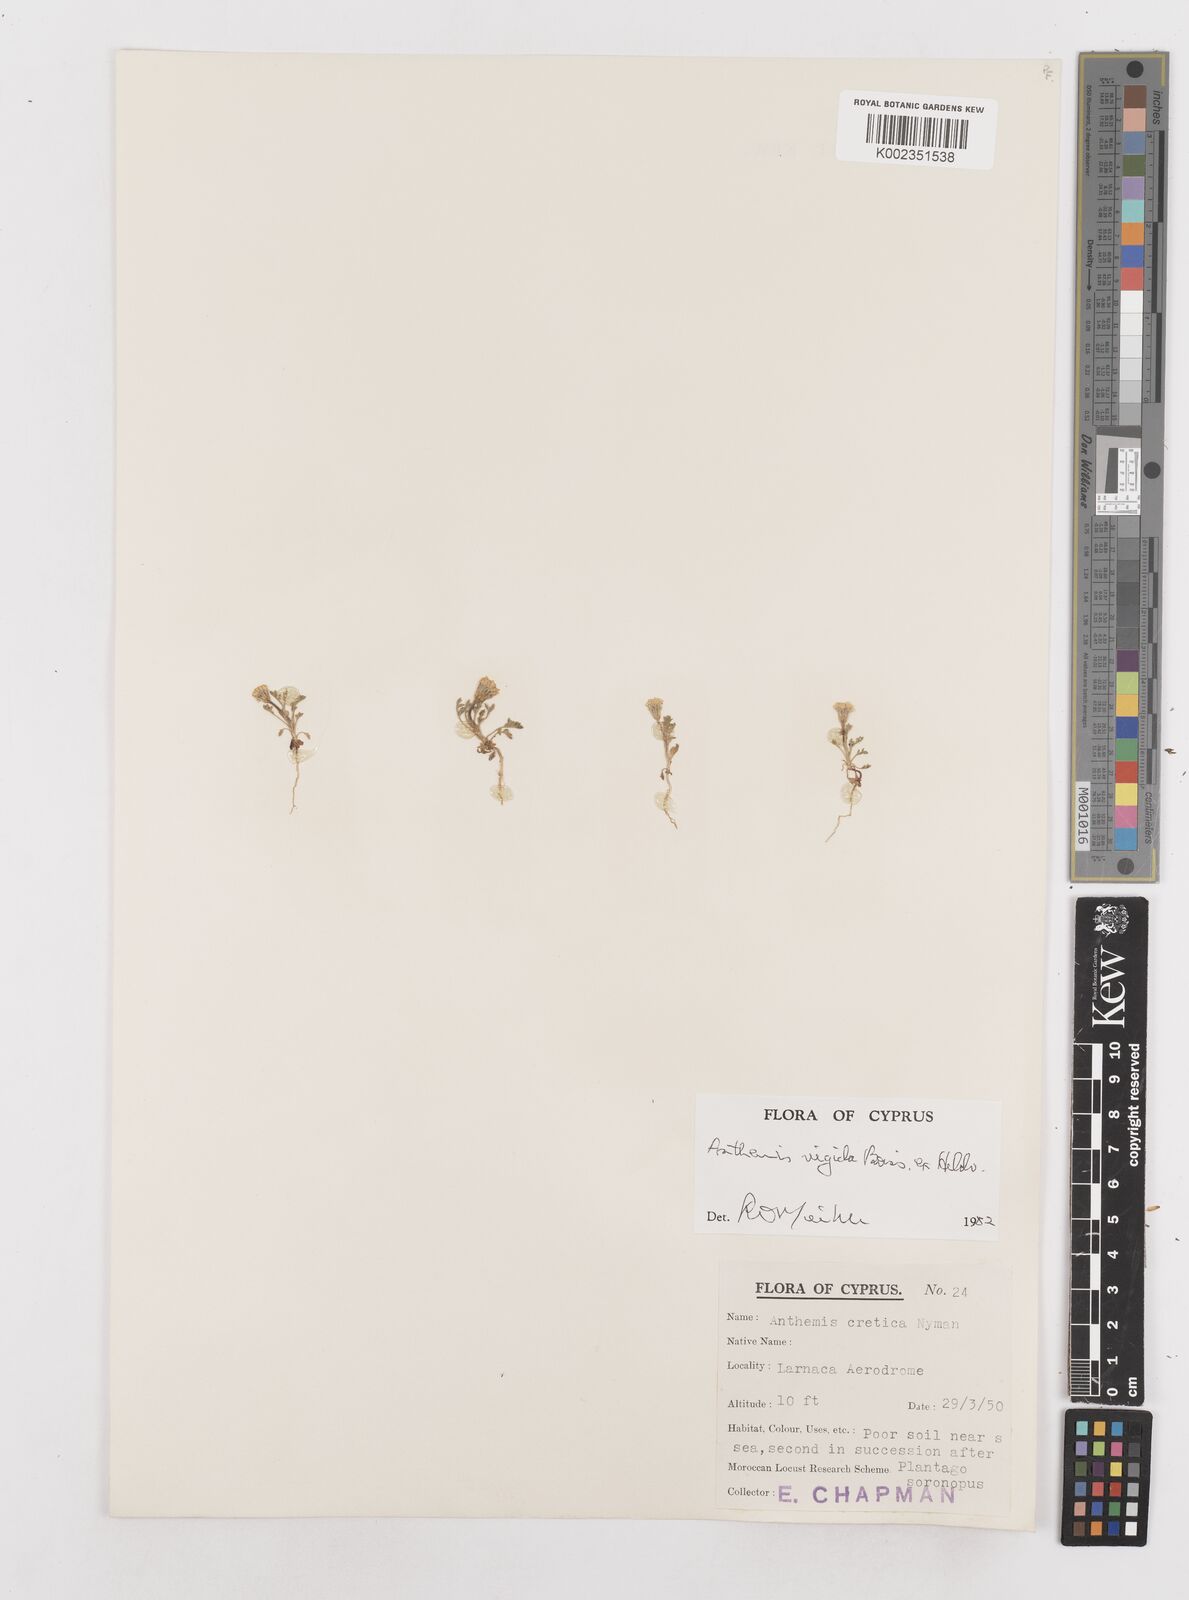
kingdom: Plantae
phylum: Tracheophyta
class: Magnoliopsida
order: Asterales
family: Asteraceae
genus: Anthemis
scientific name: Anthemis rigida
